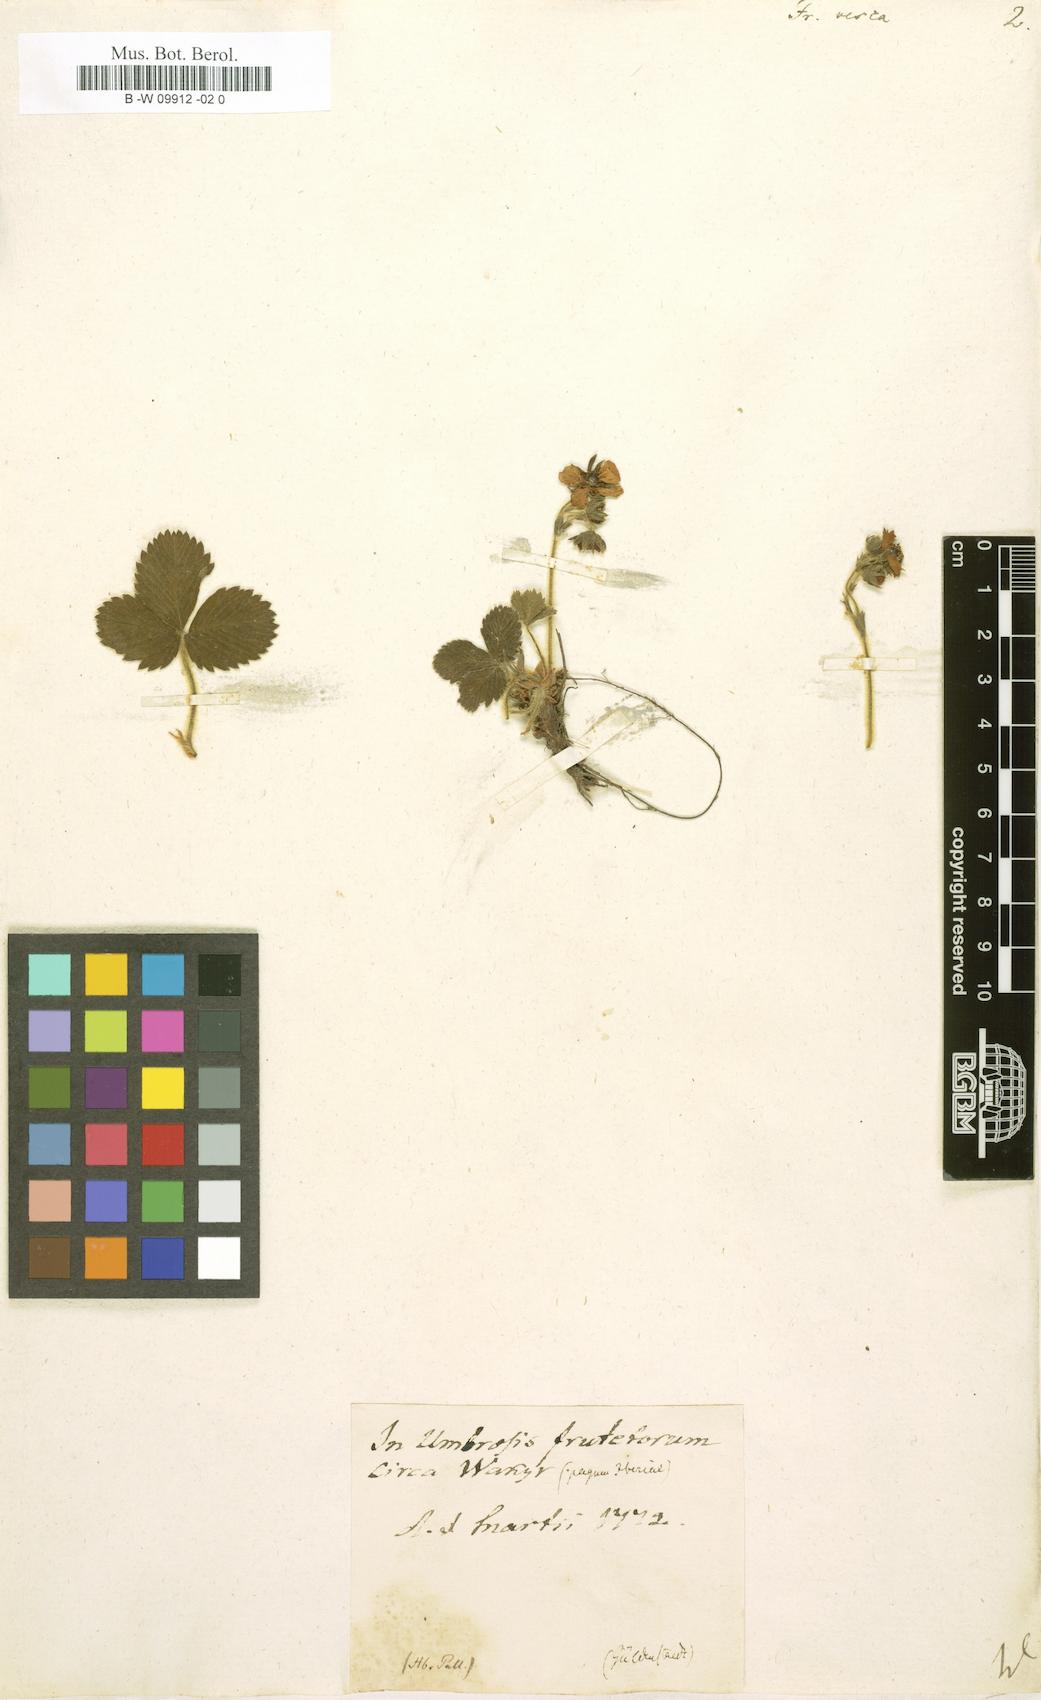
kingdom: Plantae
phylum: Tracheophyta
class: Magnoliopsida
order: Rosales
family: Rosaceae
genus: Fragaria
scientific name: Fragaria vesca
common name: Wild strawberry
